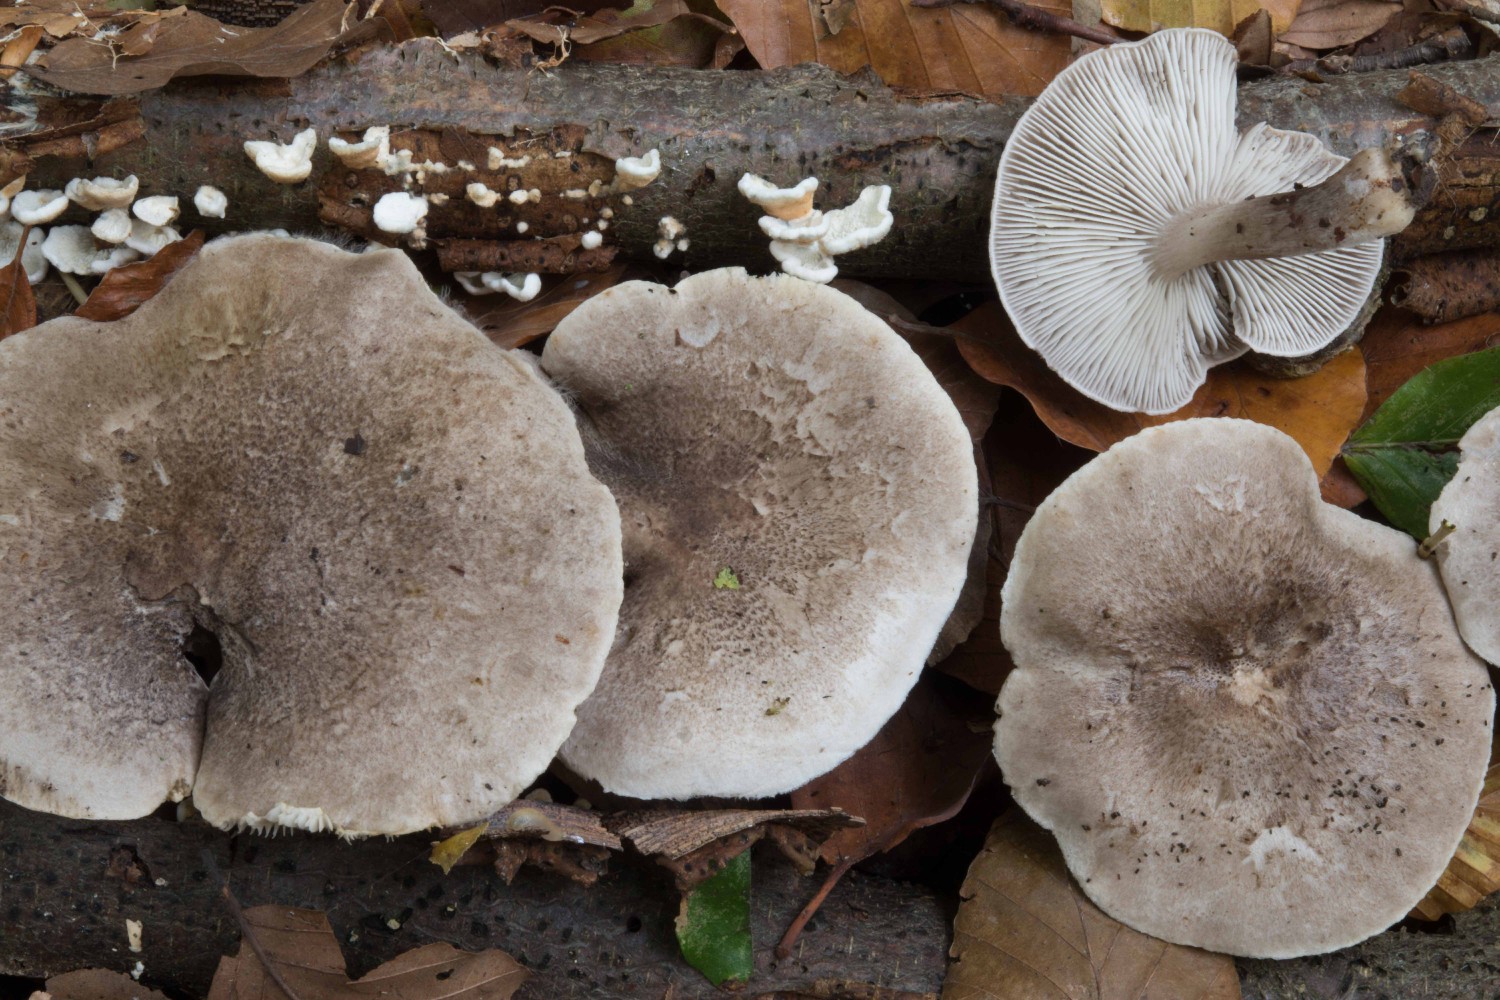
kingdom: Fungi
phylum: Basidiomycota
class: Agaricomycetes
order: Agaricales
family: Tricholomataceae
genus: Tricholoma
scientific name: Tricholoma scalpturatum
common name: gulplettet ridderhat
